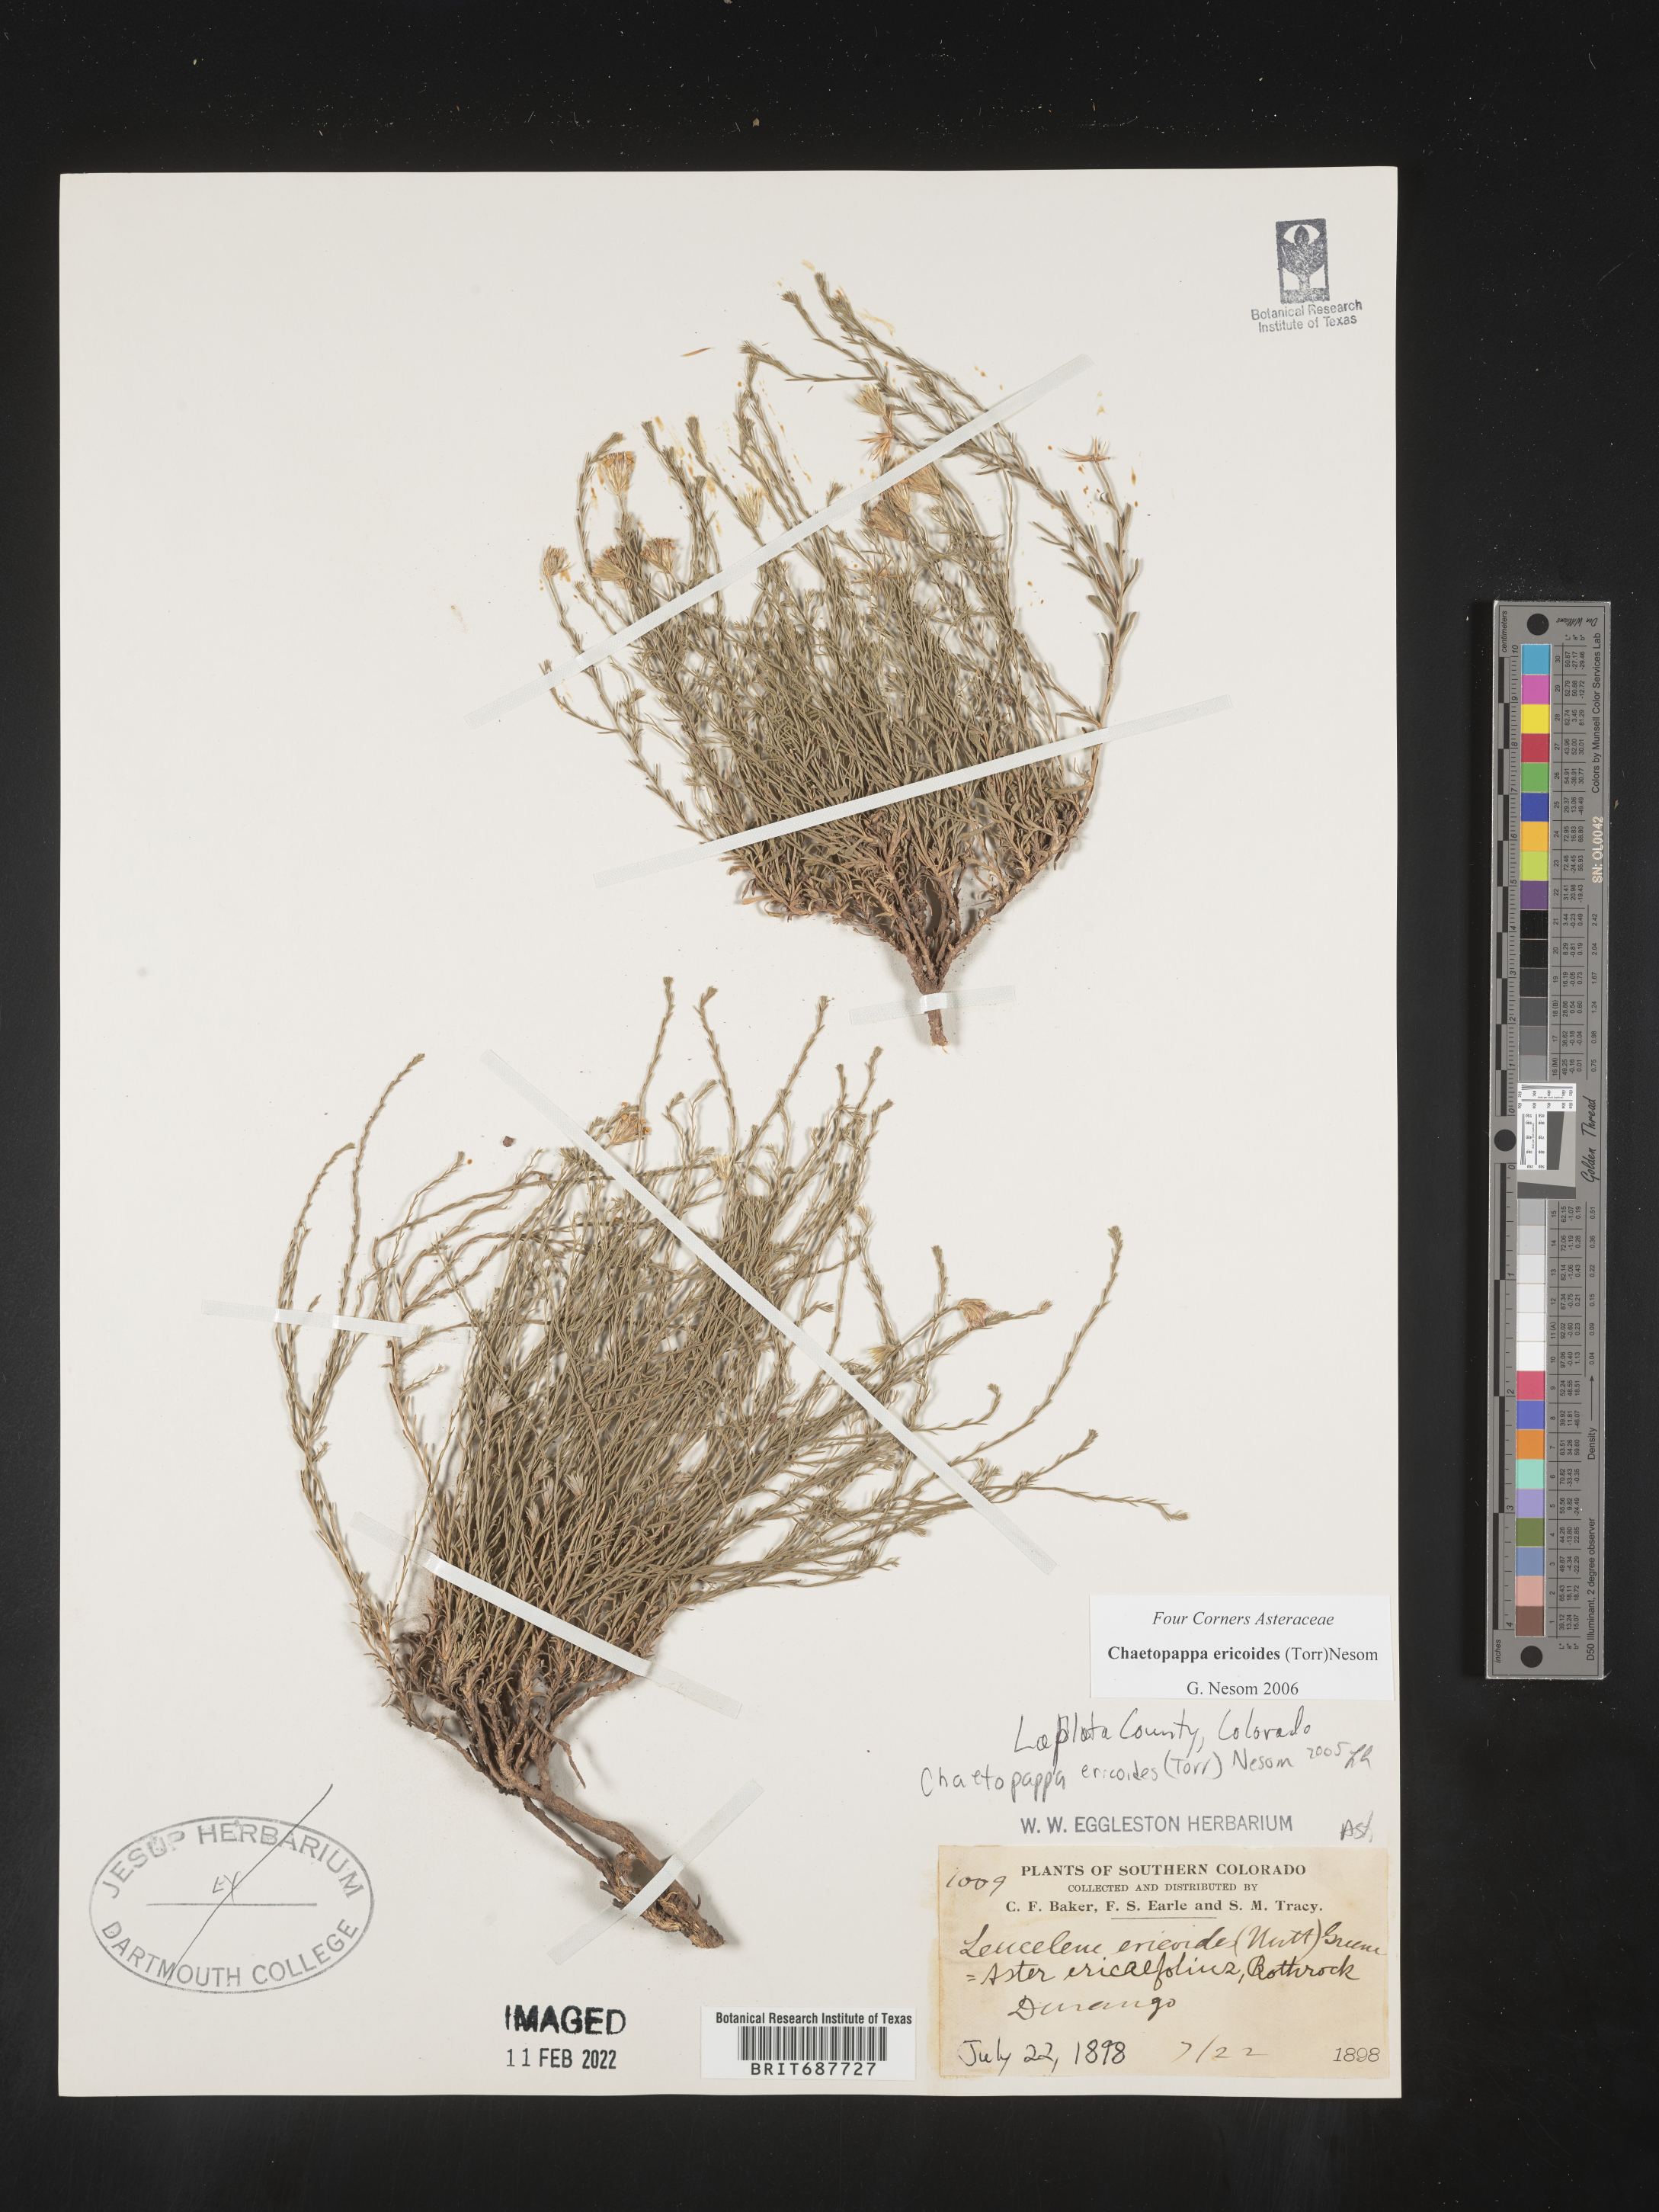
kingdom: Plantae
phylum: Tracheophyta
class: Magnoliopsida
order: Asterales
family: Asteraceae
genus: Chaetopappa
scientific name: Chaetopappa ericoides
